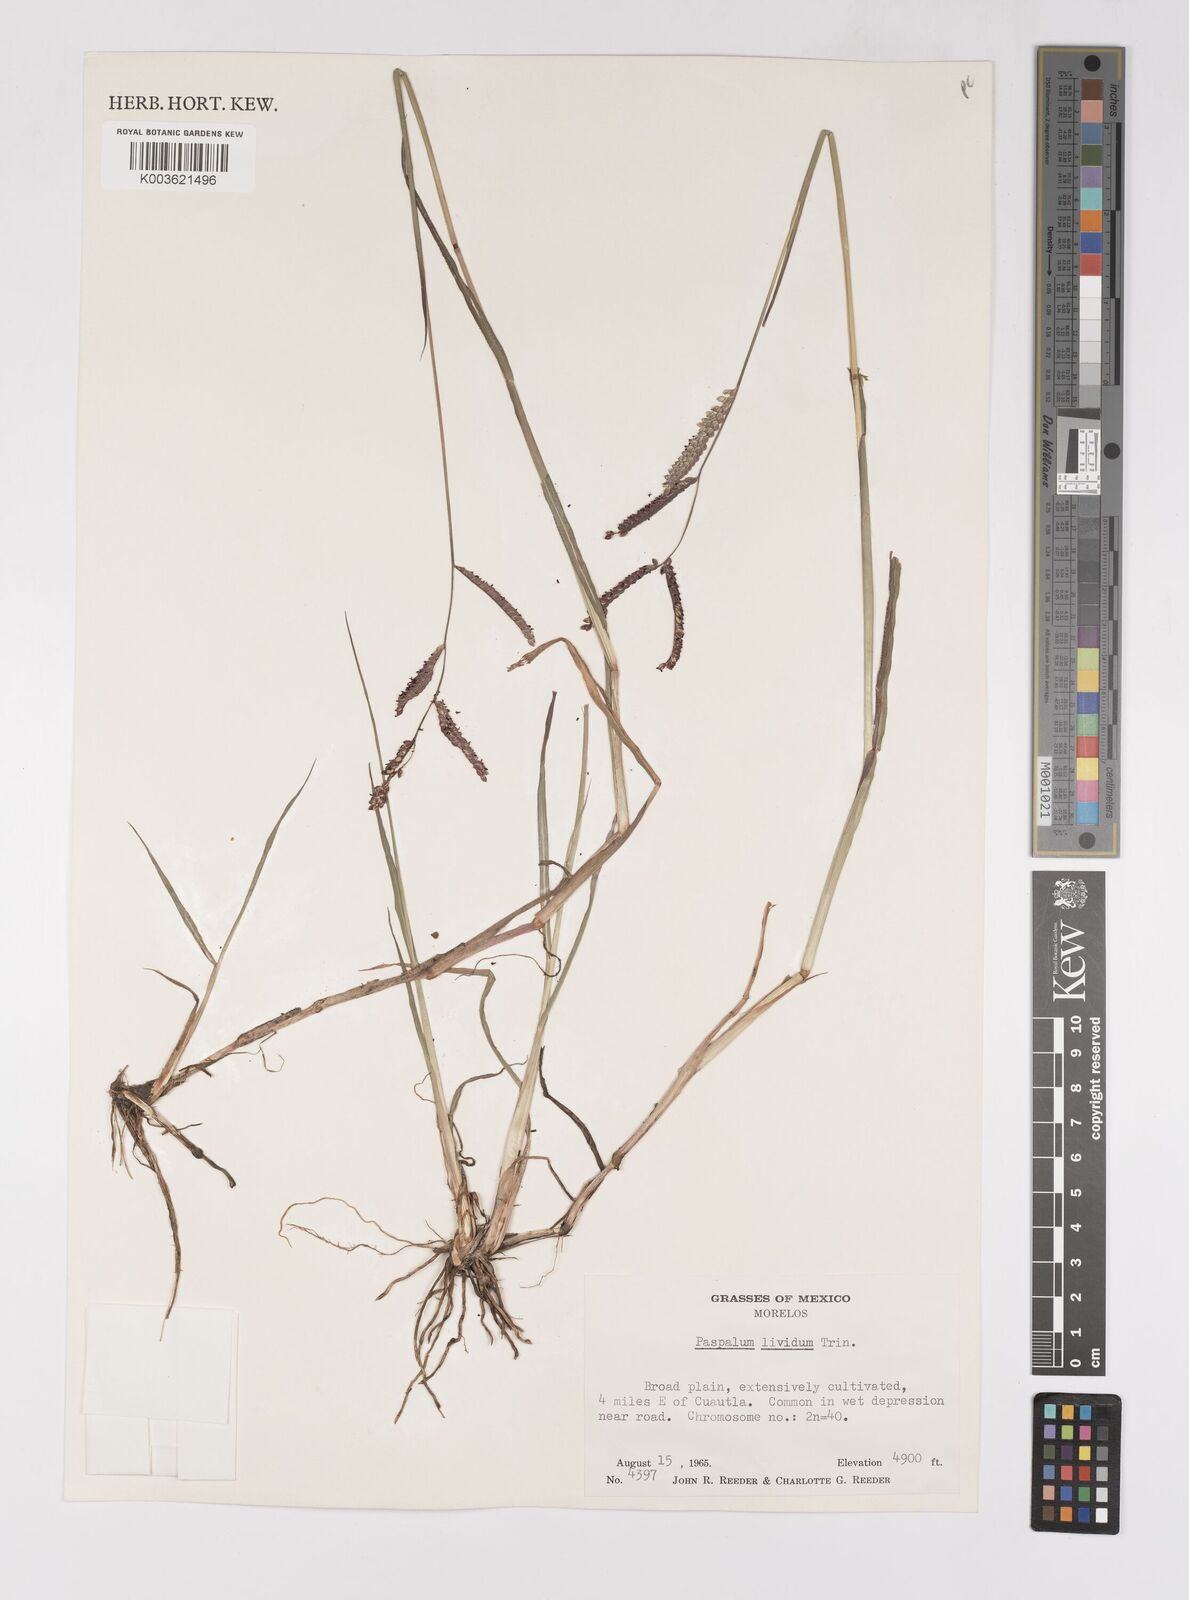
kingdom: Plantae
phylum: Tracheophyta
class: Liliopsida
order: Poales
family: Poaceae
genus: Paspalum
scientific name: Paspalum denticulatum
